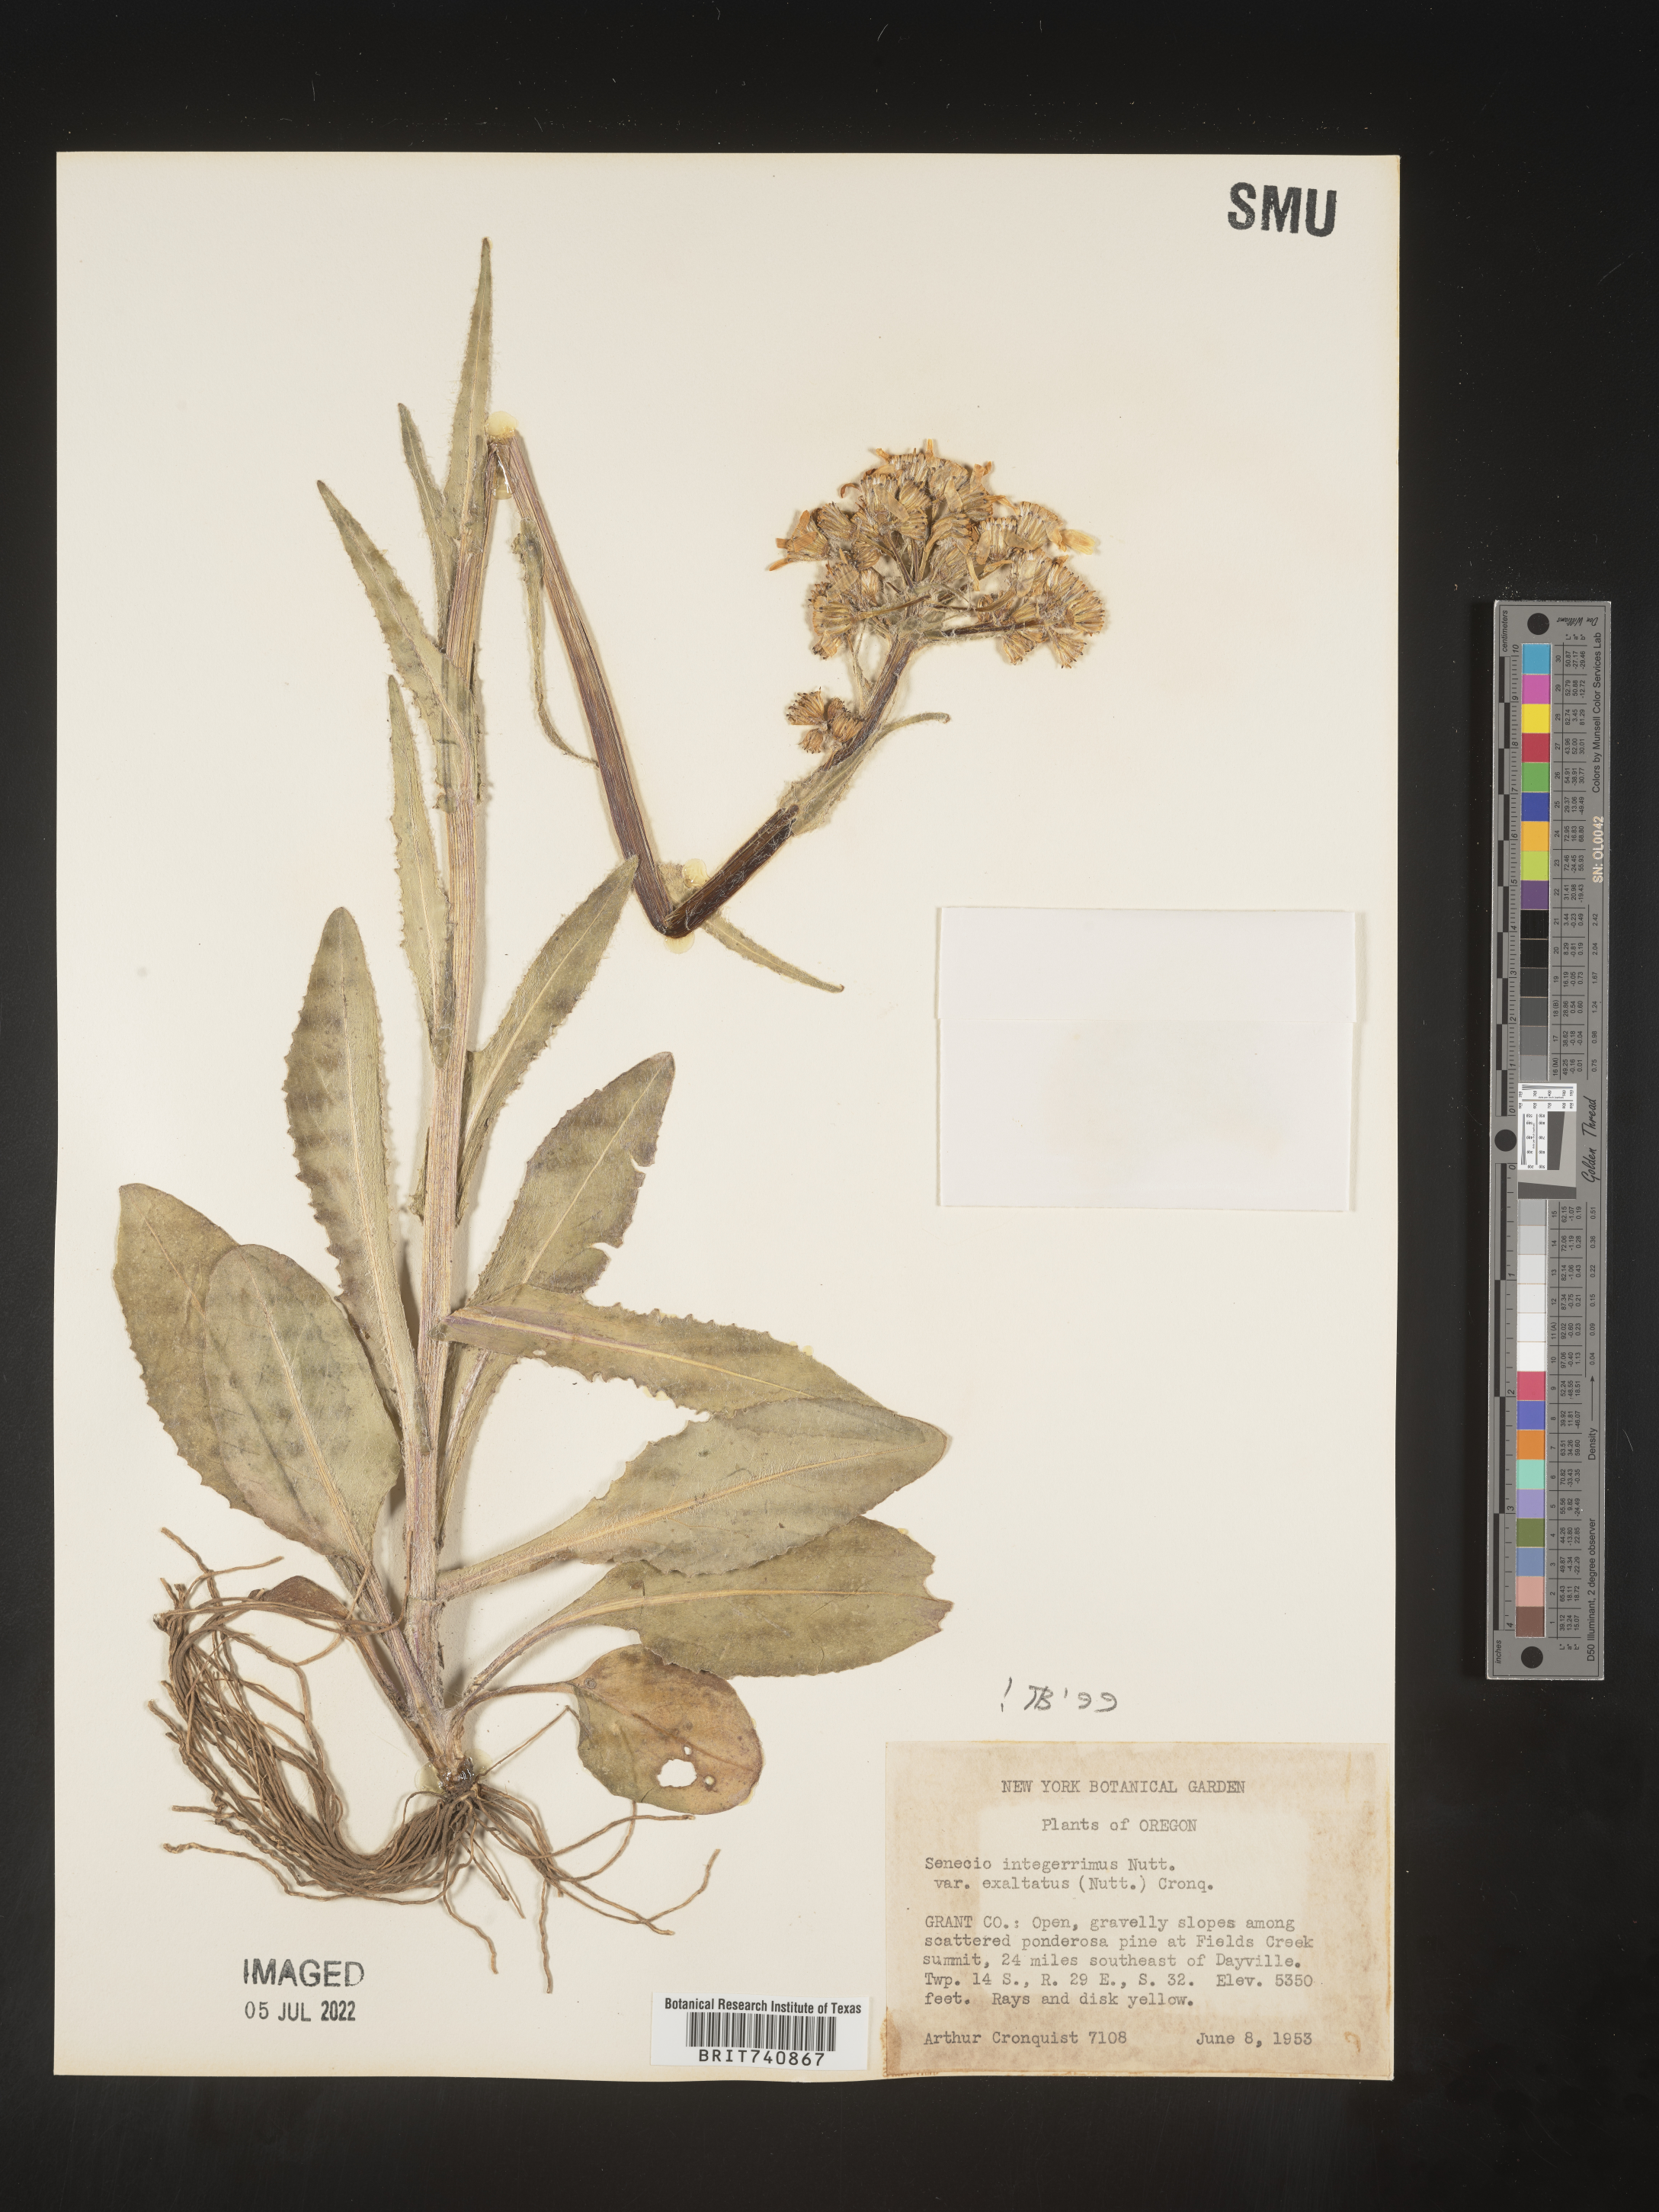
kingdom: Plantae
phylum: Tracheophyta
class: Magnoliopsida
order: Asterales
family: Asteraceae
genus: Senecio
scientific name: Senecio integerrimus
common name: Gaugeplant
